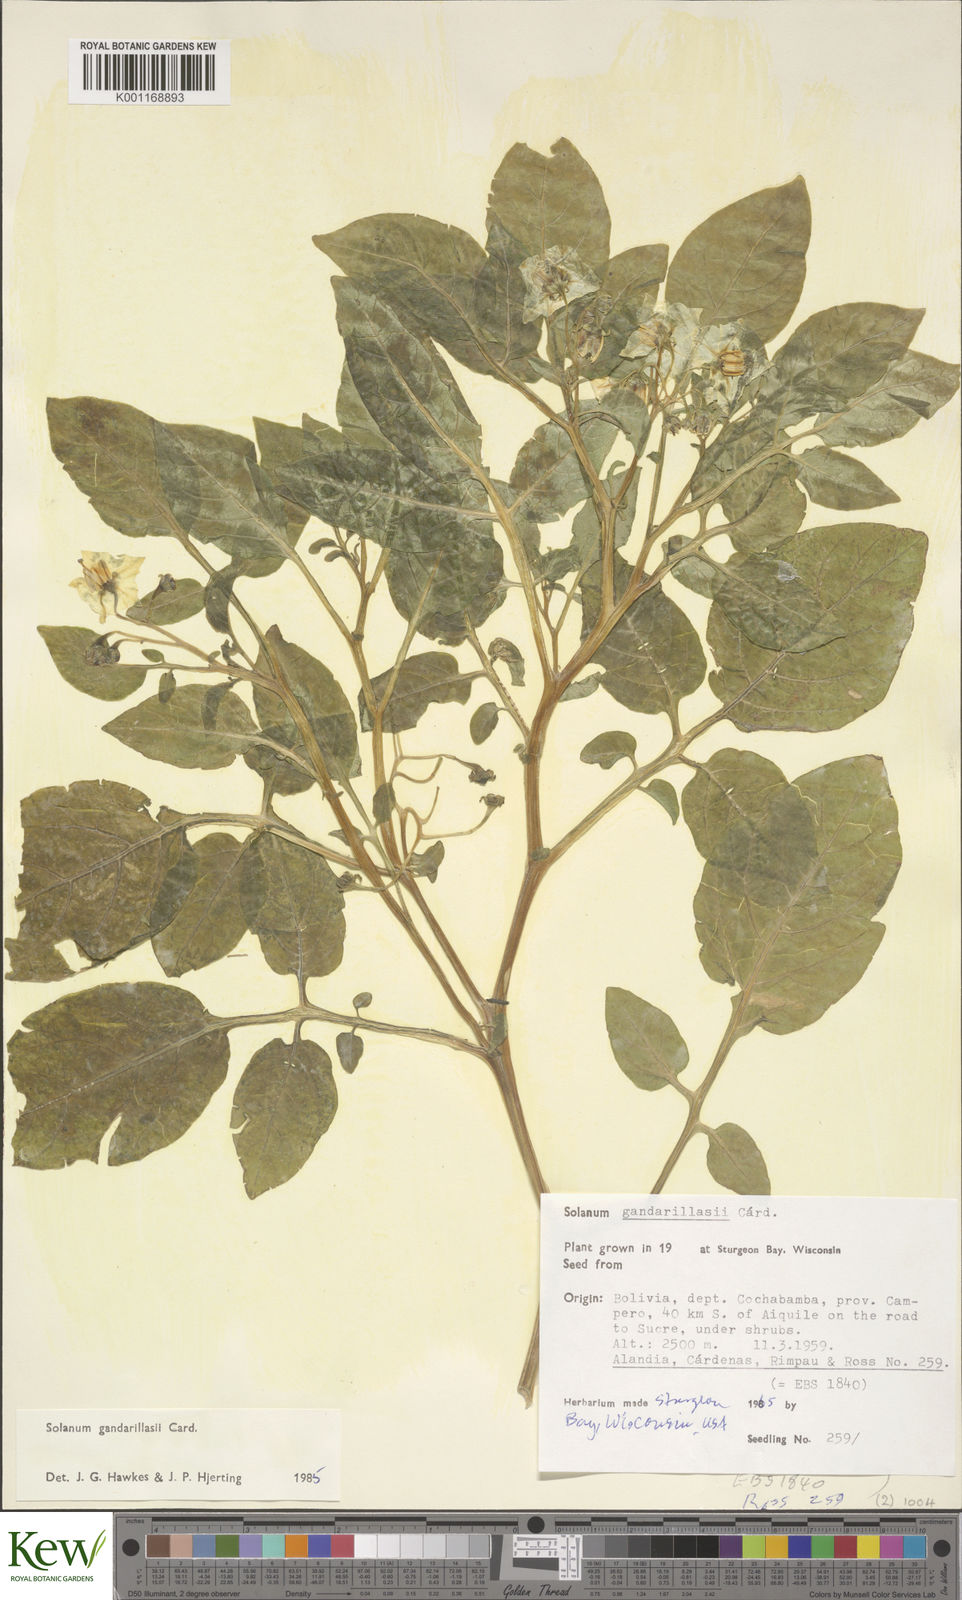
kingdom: Plantae
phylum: Tracheophyta
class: Magnoliopsida
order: Solanales
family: Solanaceae
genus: Solanum
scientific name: Solanum
